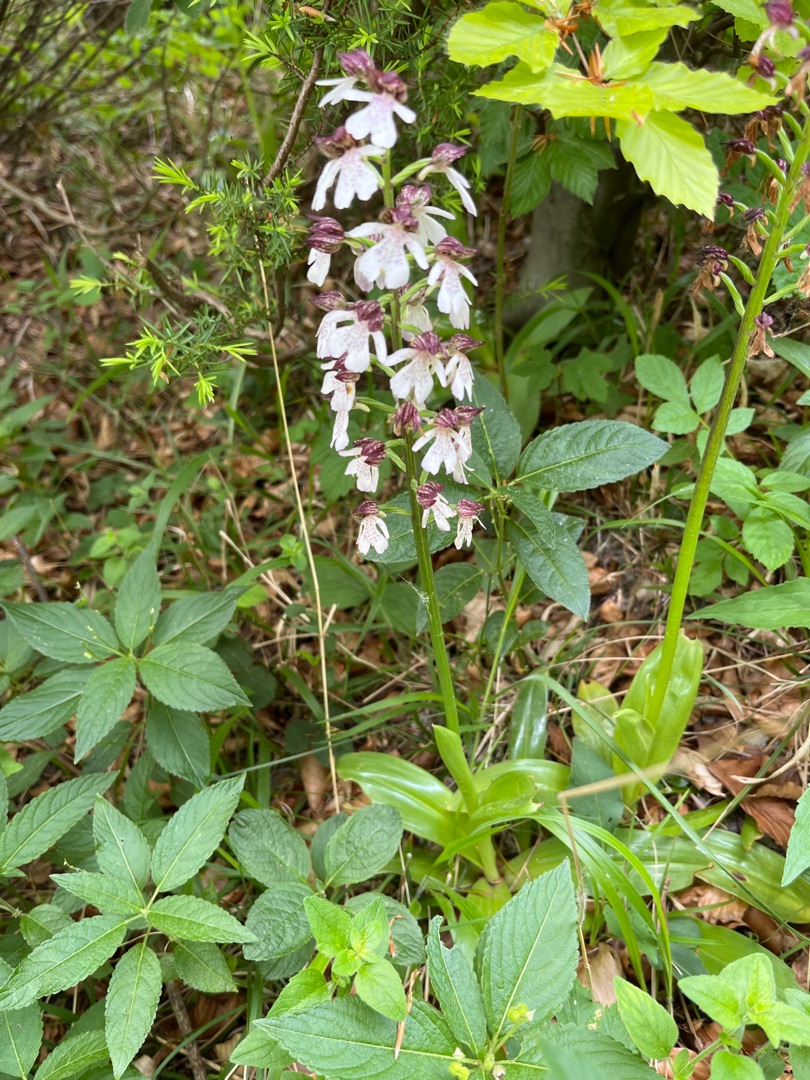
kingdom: Plantae
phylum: Tracheophyta
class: Liliopsida
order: Asparagales
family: Orchidaceae
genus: Orchis
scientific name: Orchis purpurea
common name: Stor gøgeurt
